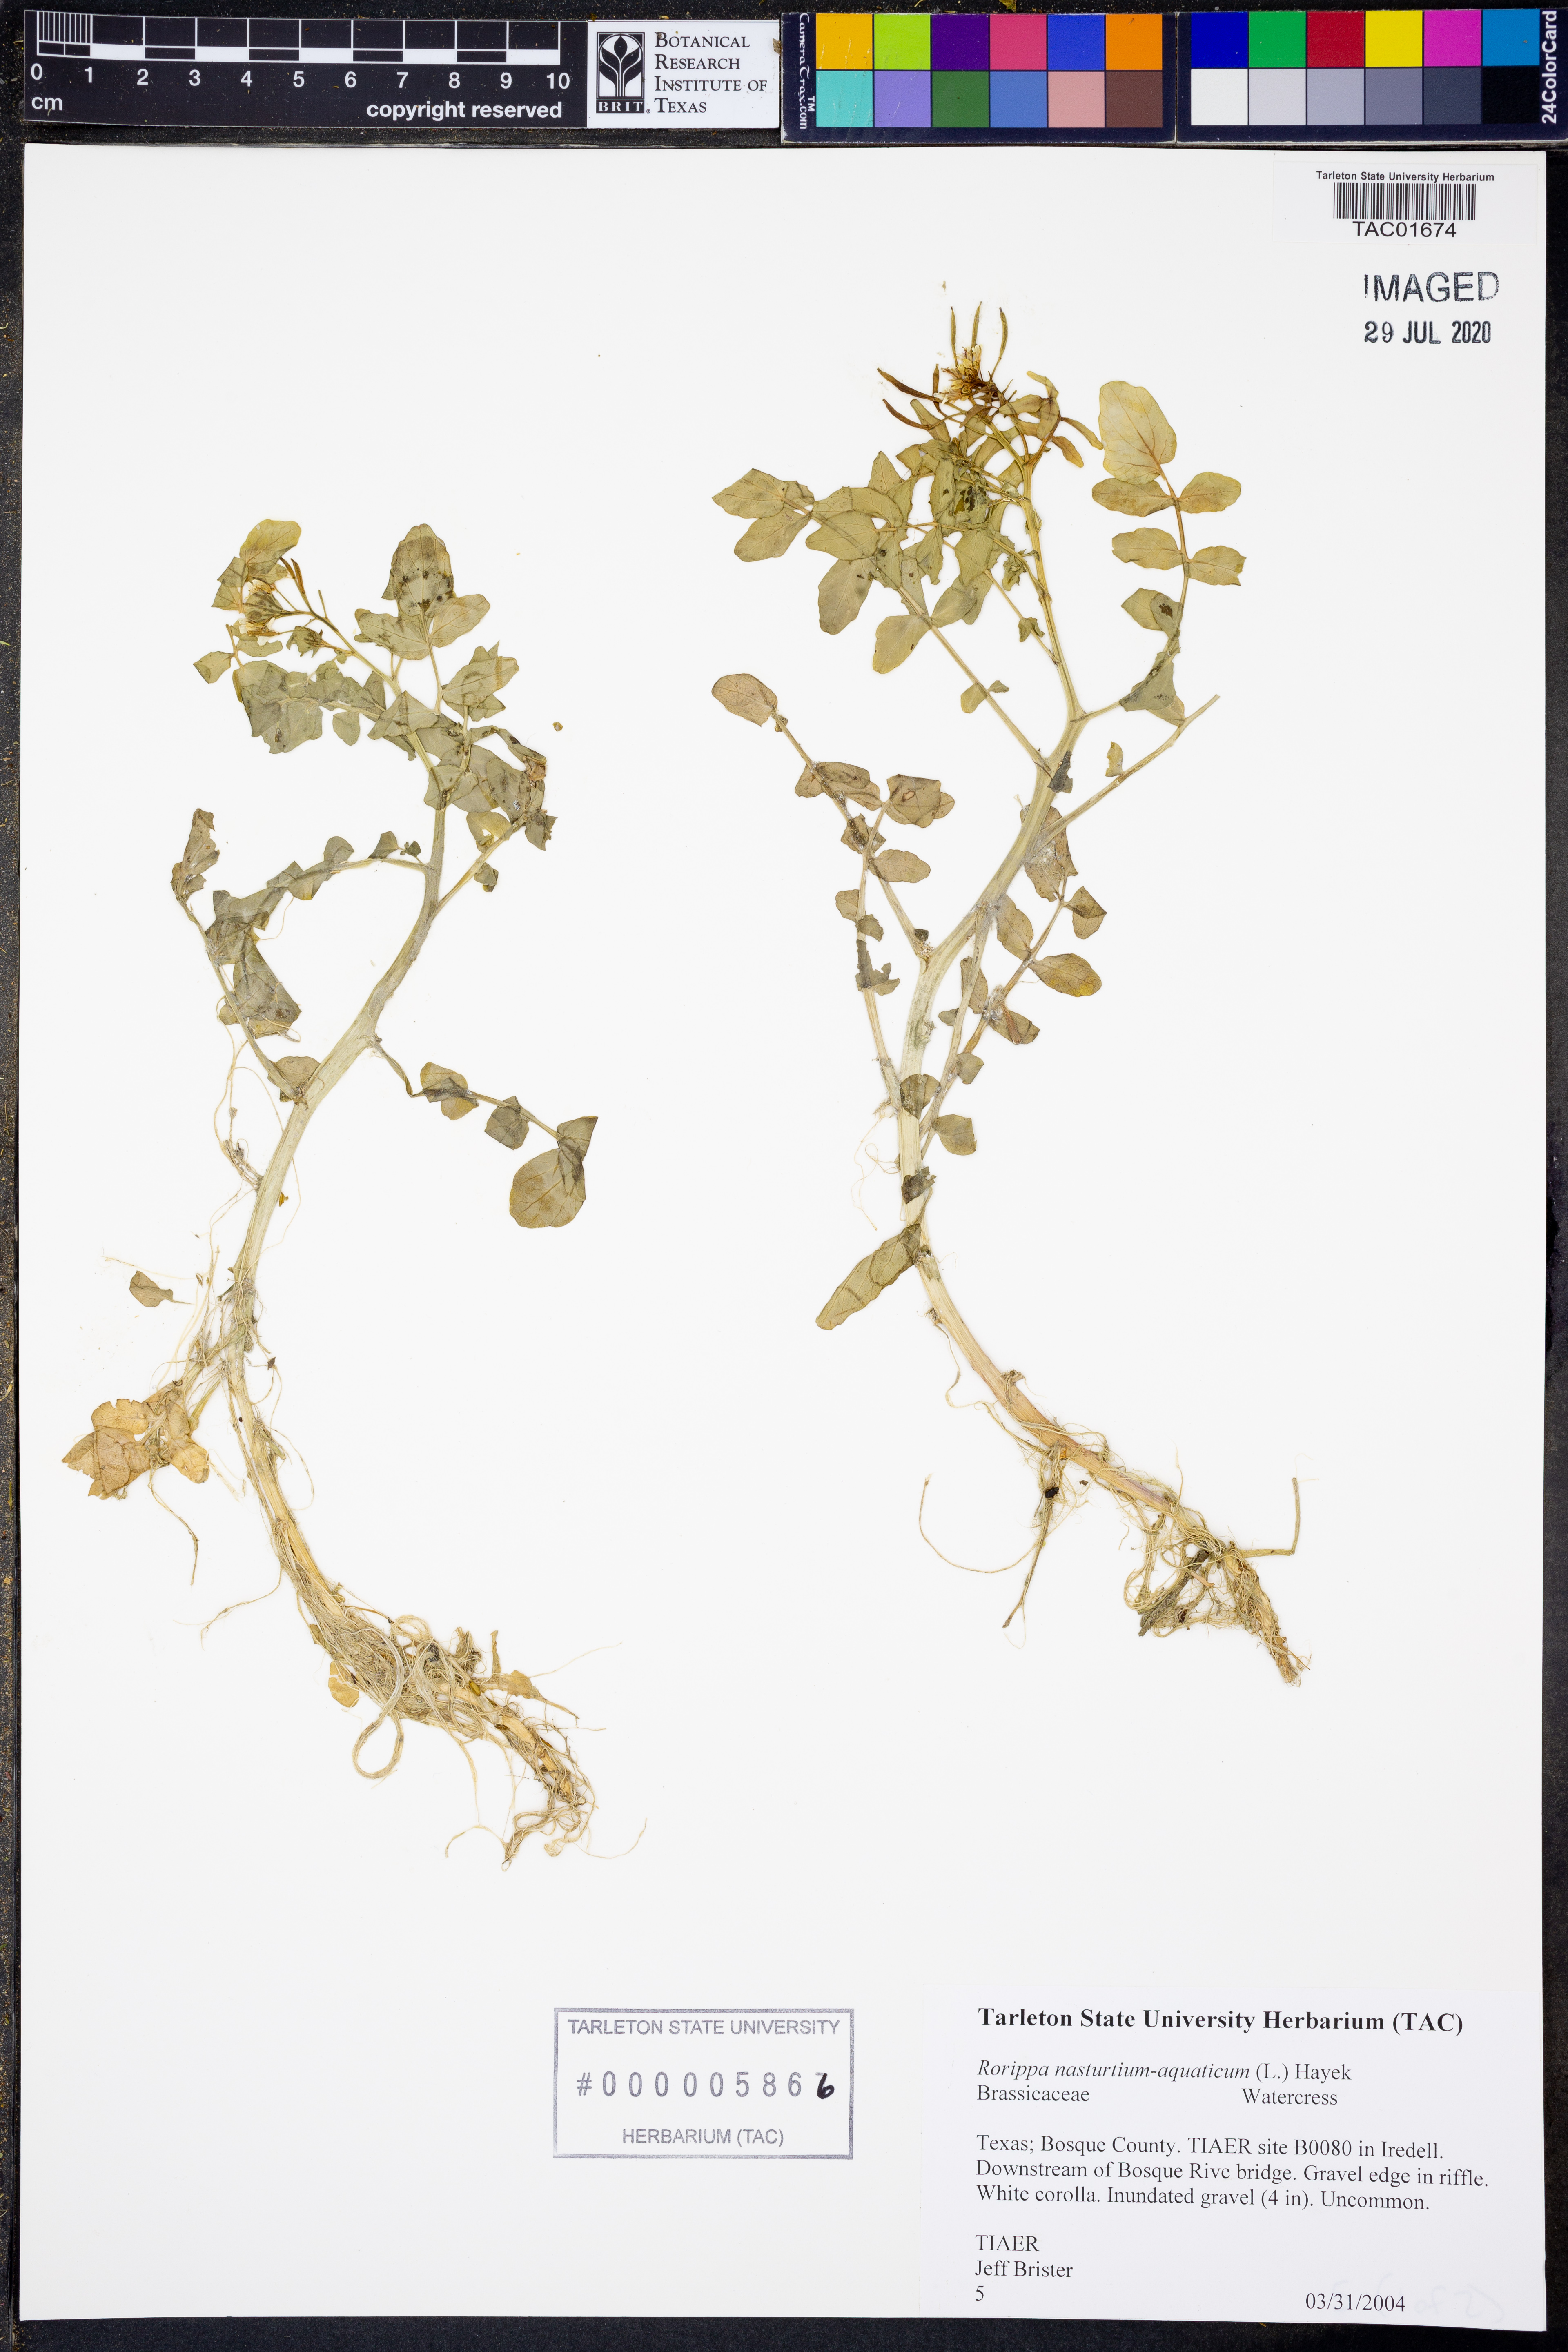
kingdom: Plantae
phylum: Tracheophyta
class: Magnoliopsida
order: Brassicales
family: Brassicaceae
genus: Nasturtium
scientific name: Nasturtium officinale
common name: Watercress
